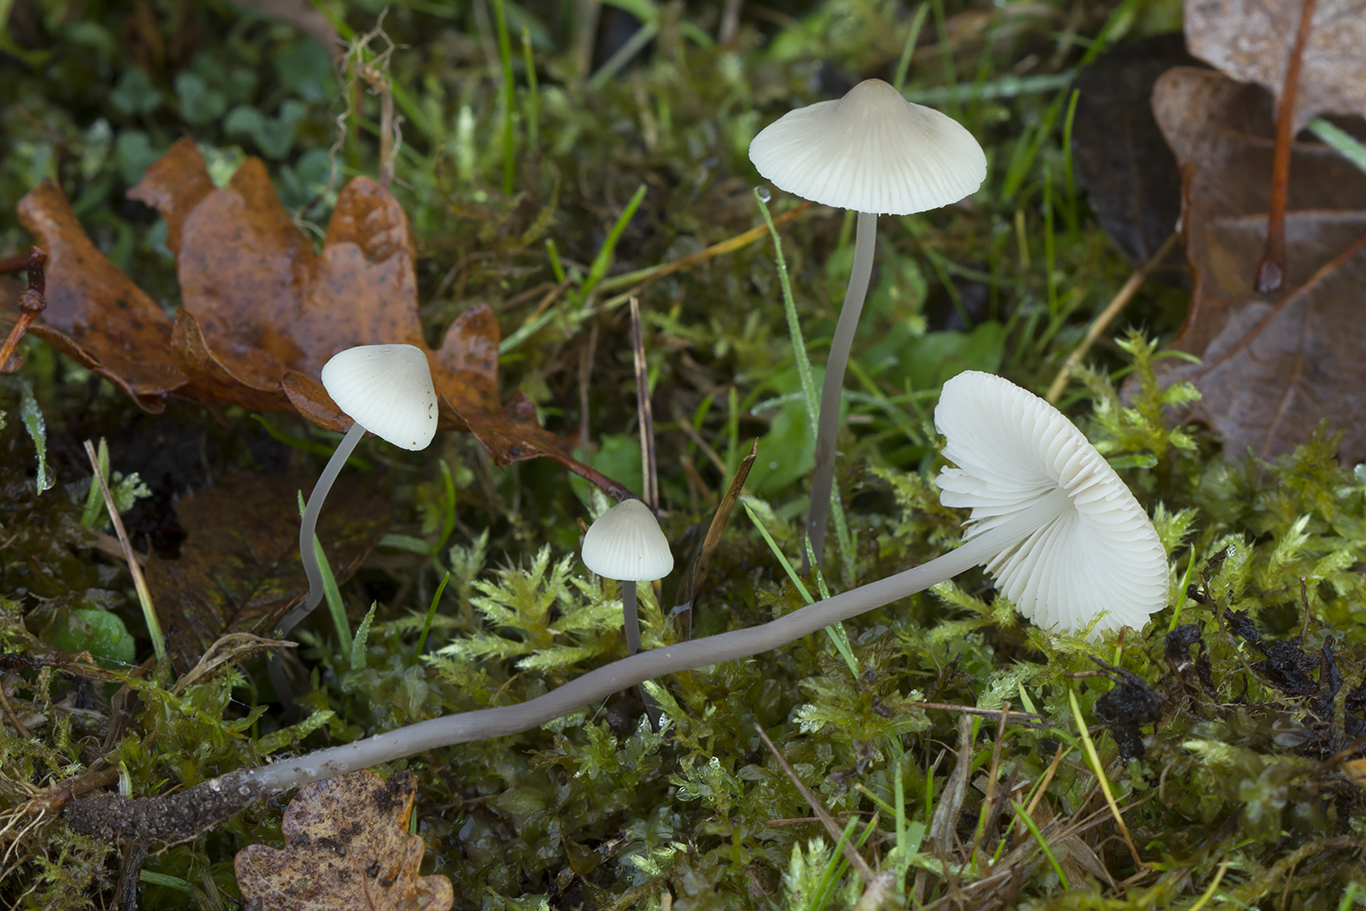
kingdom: Fungi
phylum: Basidiomycota
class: Agaricomycetes
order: Agaricales
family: Mycenaceae
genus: Mycena
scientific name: Mycena arcangeliana
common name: oliven-huesvamp
